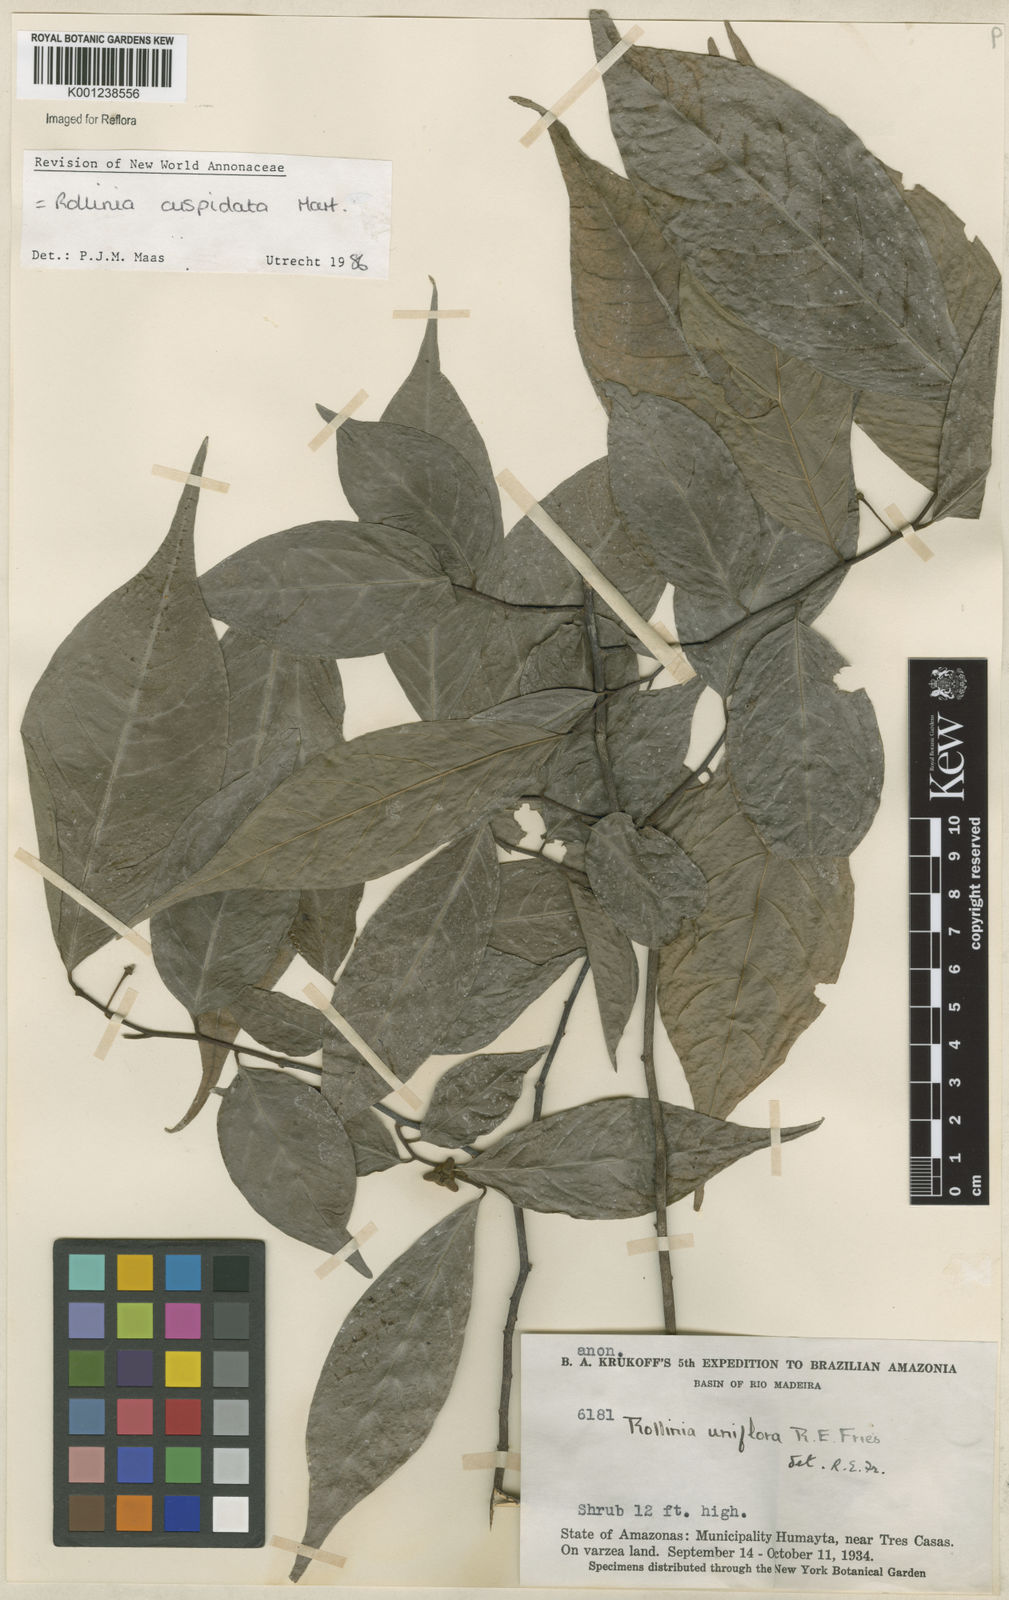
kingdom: Plantae
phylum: Tracheophyta
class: Magnoliopsida
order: Magnoliales
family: Annonaceae
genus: Annona
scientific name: Annona cuspidata
